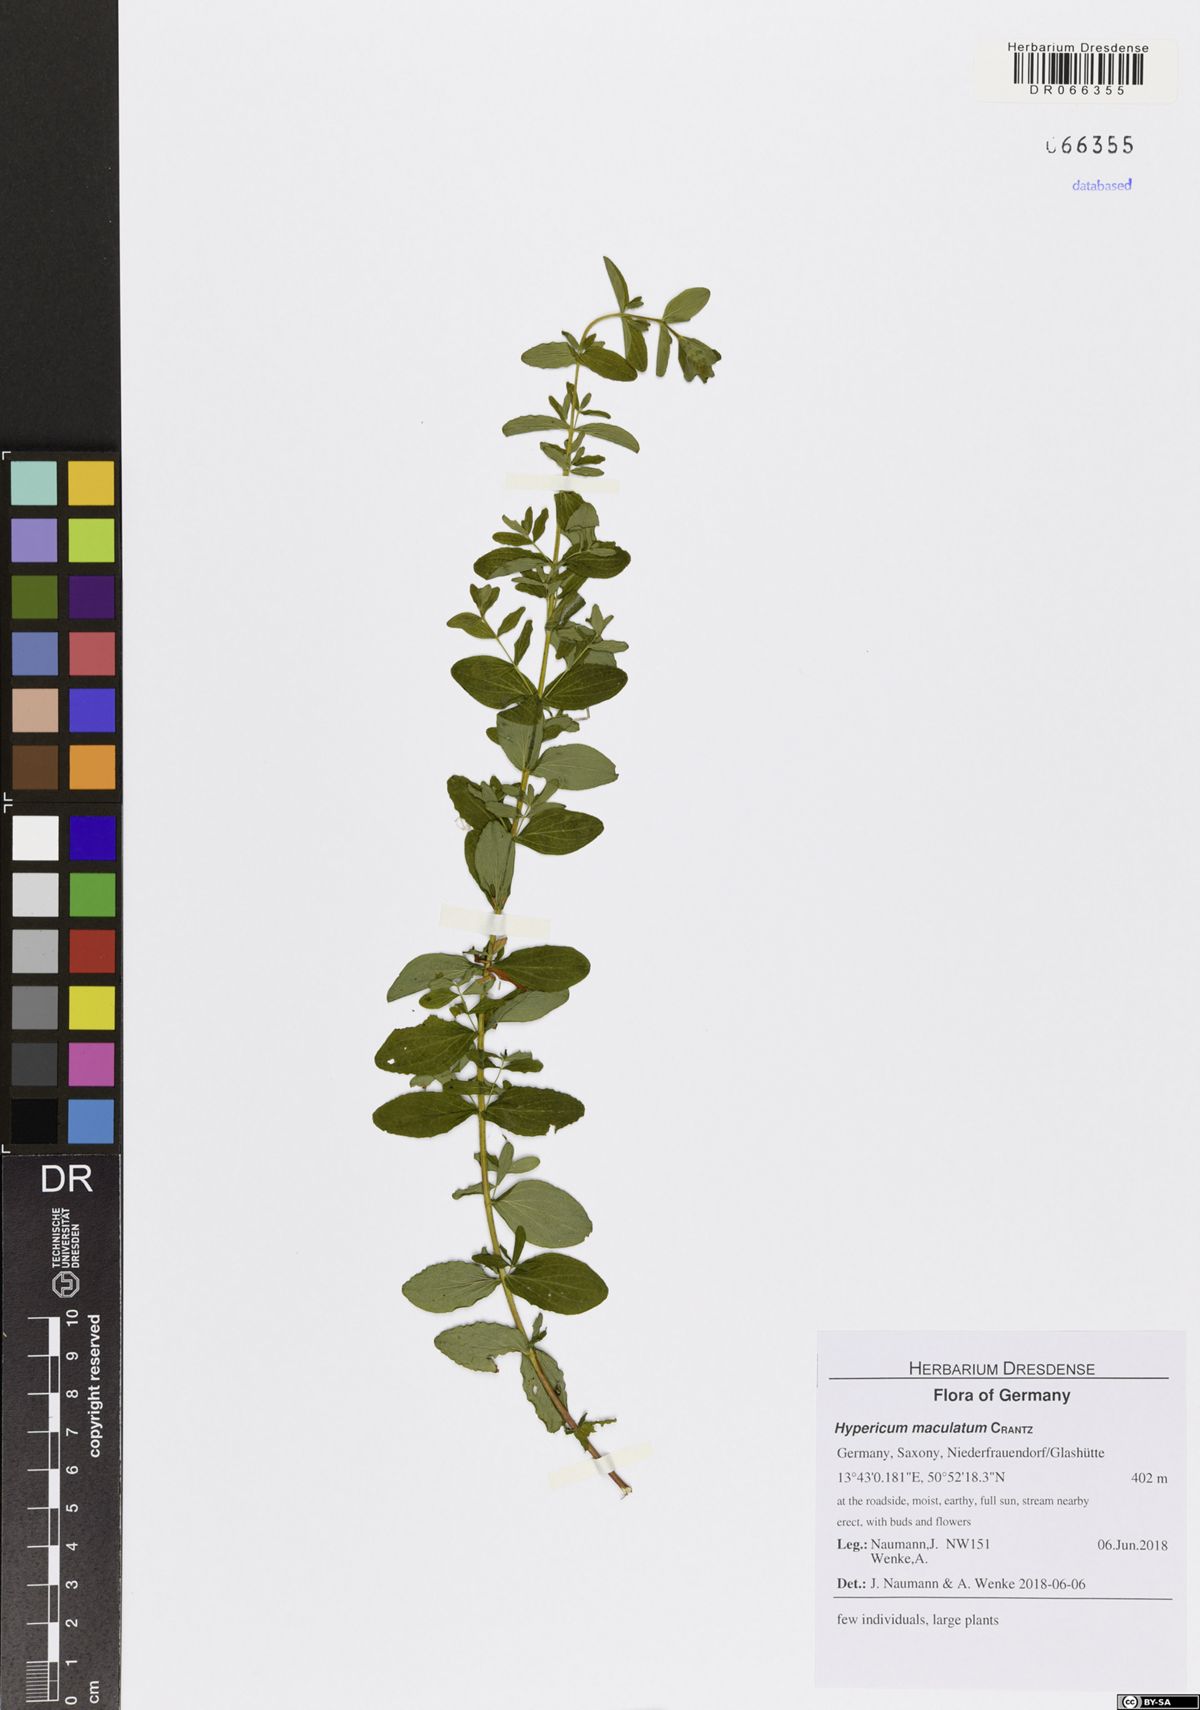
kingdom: Plantae
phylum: Tracheophyta
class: Magnoliopsida
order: Malpighiales
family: Hypericaceae
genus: Hypericum
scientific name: Hypericum maculatum
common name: Imperforate st. john's-wort
